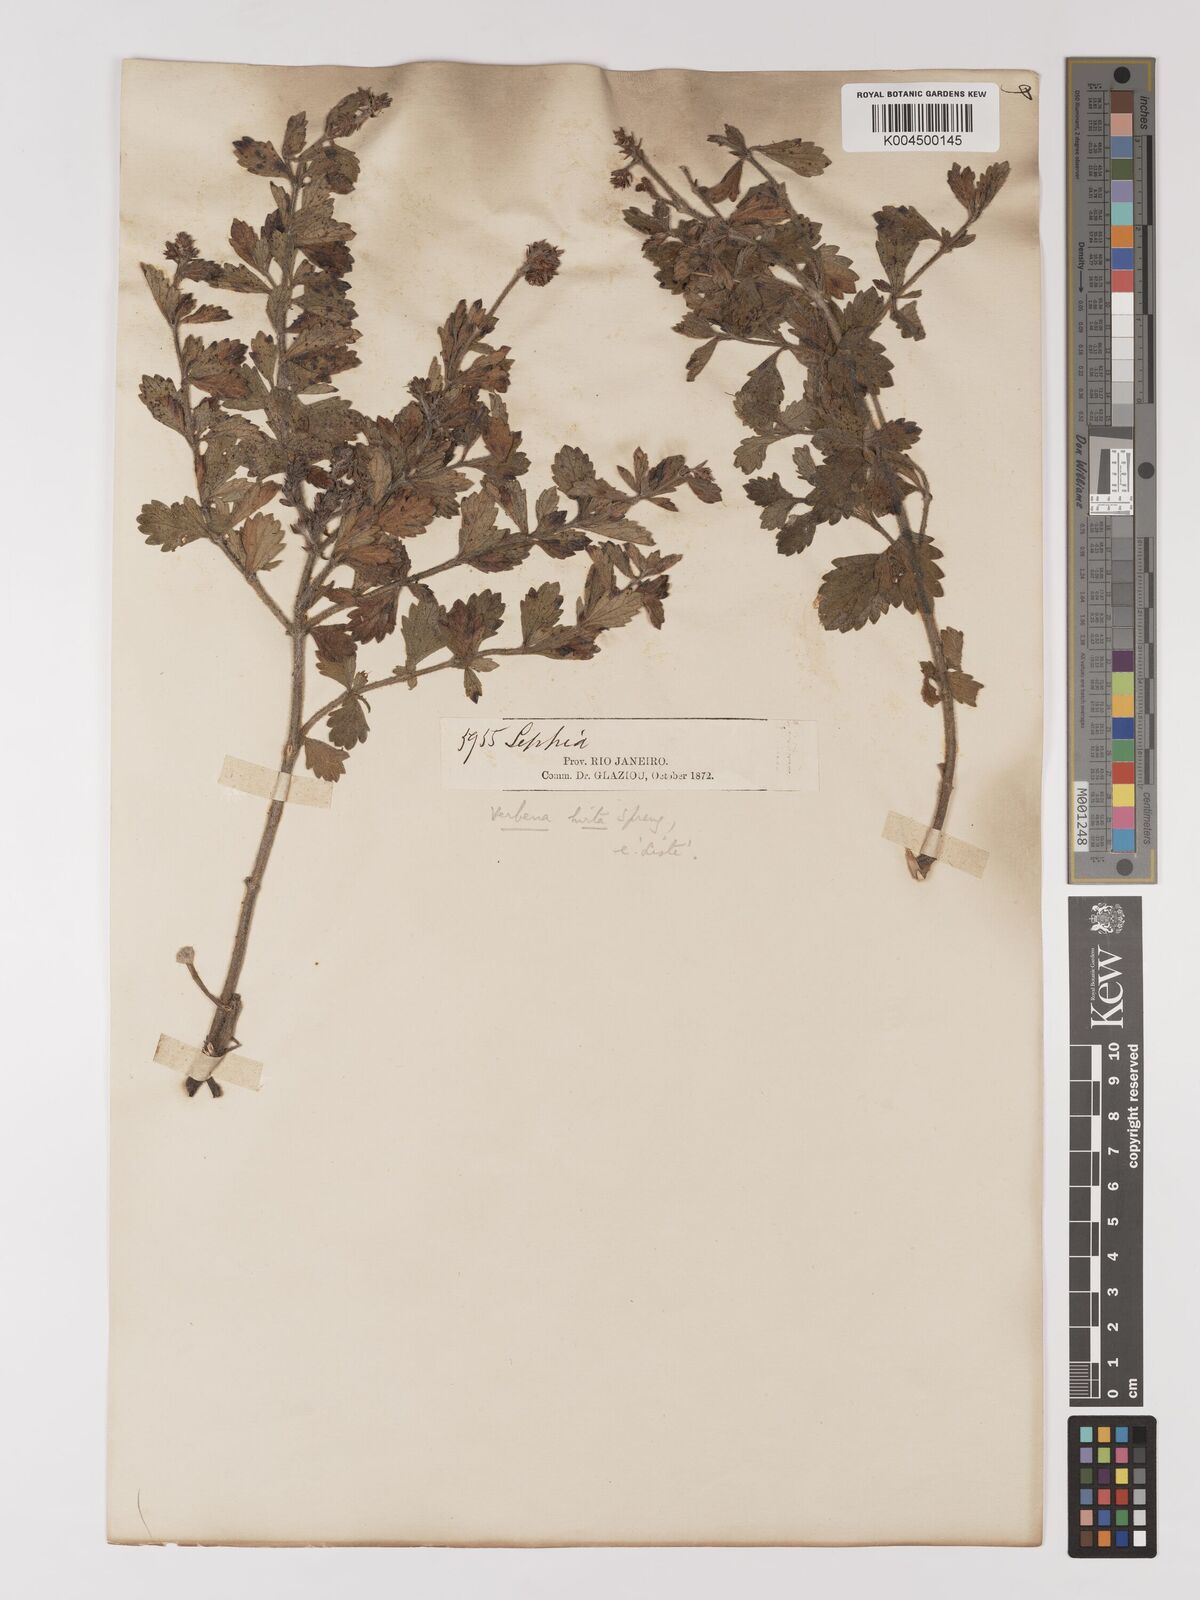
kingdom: Plantae
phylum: Tracheophyta
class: Magnoliopsida
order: Lamiales
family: Verbenaceae
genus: Verbena
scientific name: Verbena hirta
